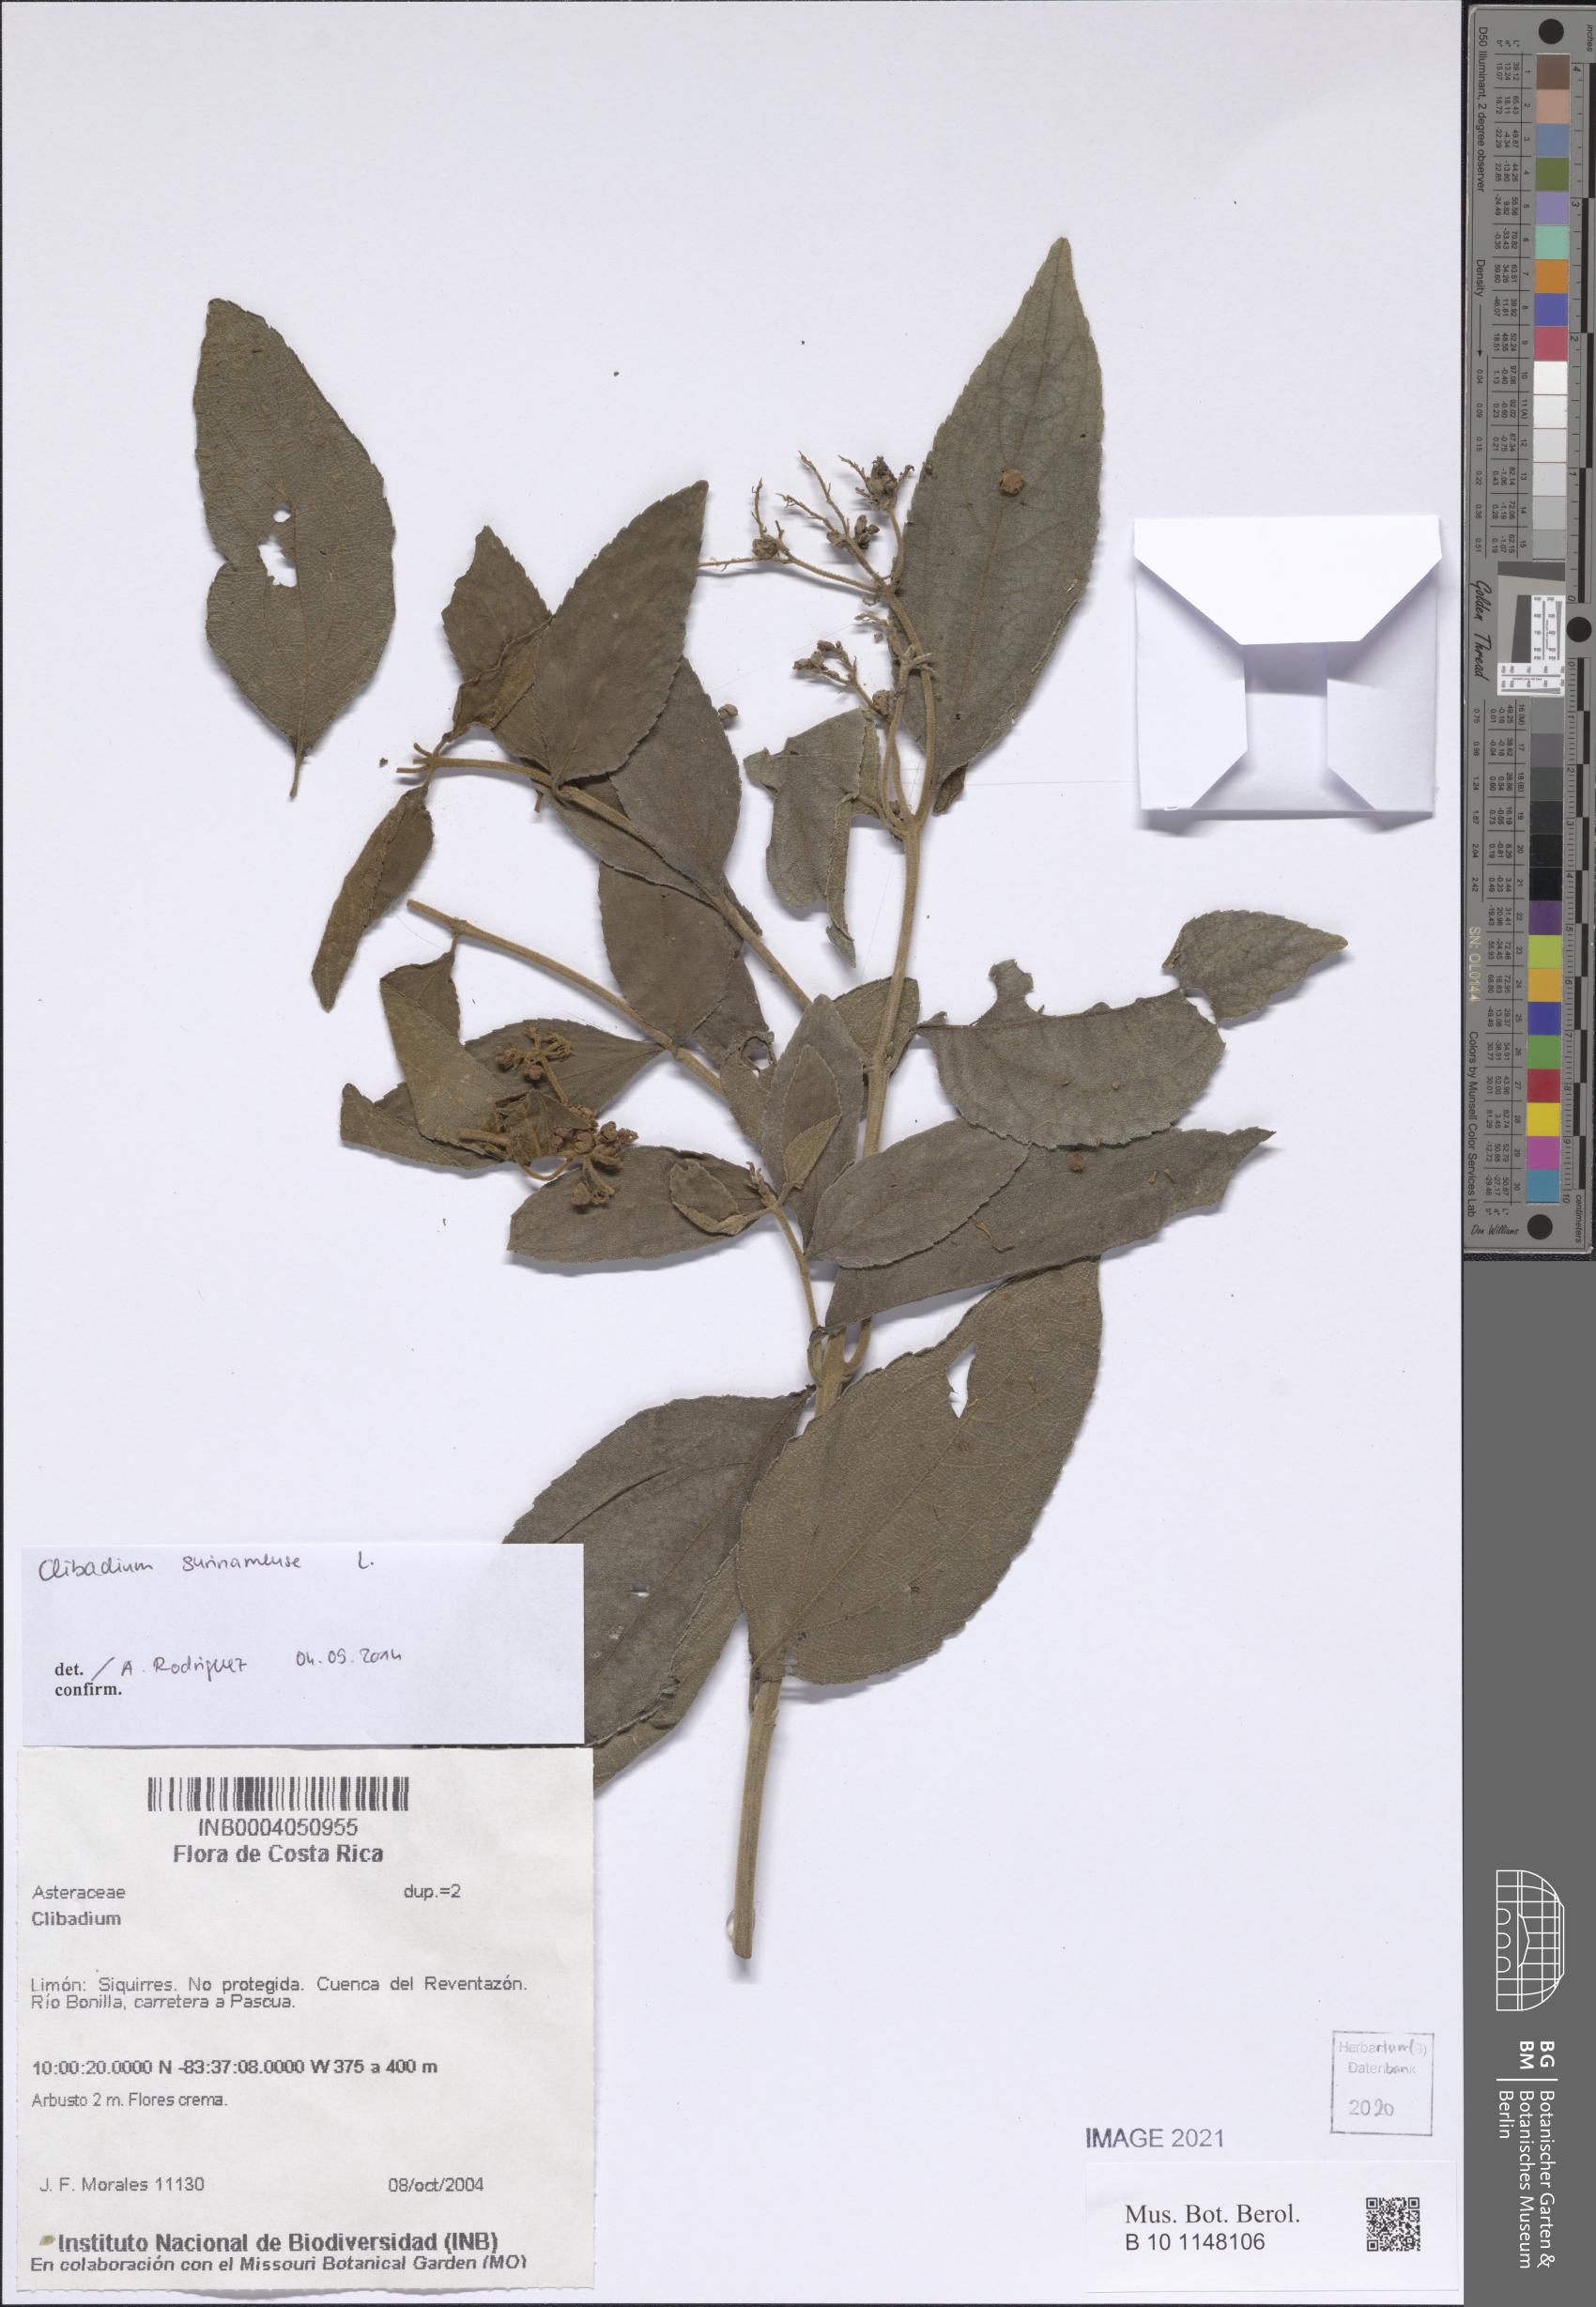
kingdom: Plantae
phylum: Tracheophyta
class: Magnoliopsida
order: Asterales
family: Asteraceae
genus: Clibadium
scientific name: Clibadium surinamense
